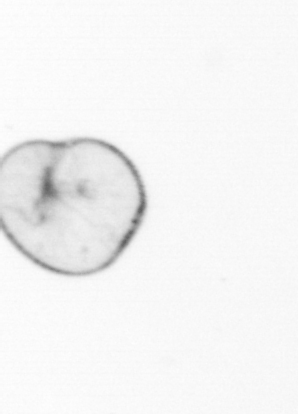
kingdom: Chromista
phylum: Myzozoa
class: Dinophyceae
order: Noctilucales
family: Noctilucaceae
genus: Noctiluca
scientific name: Noctiluca scintillans
